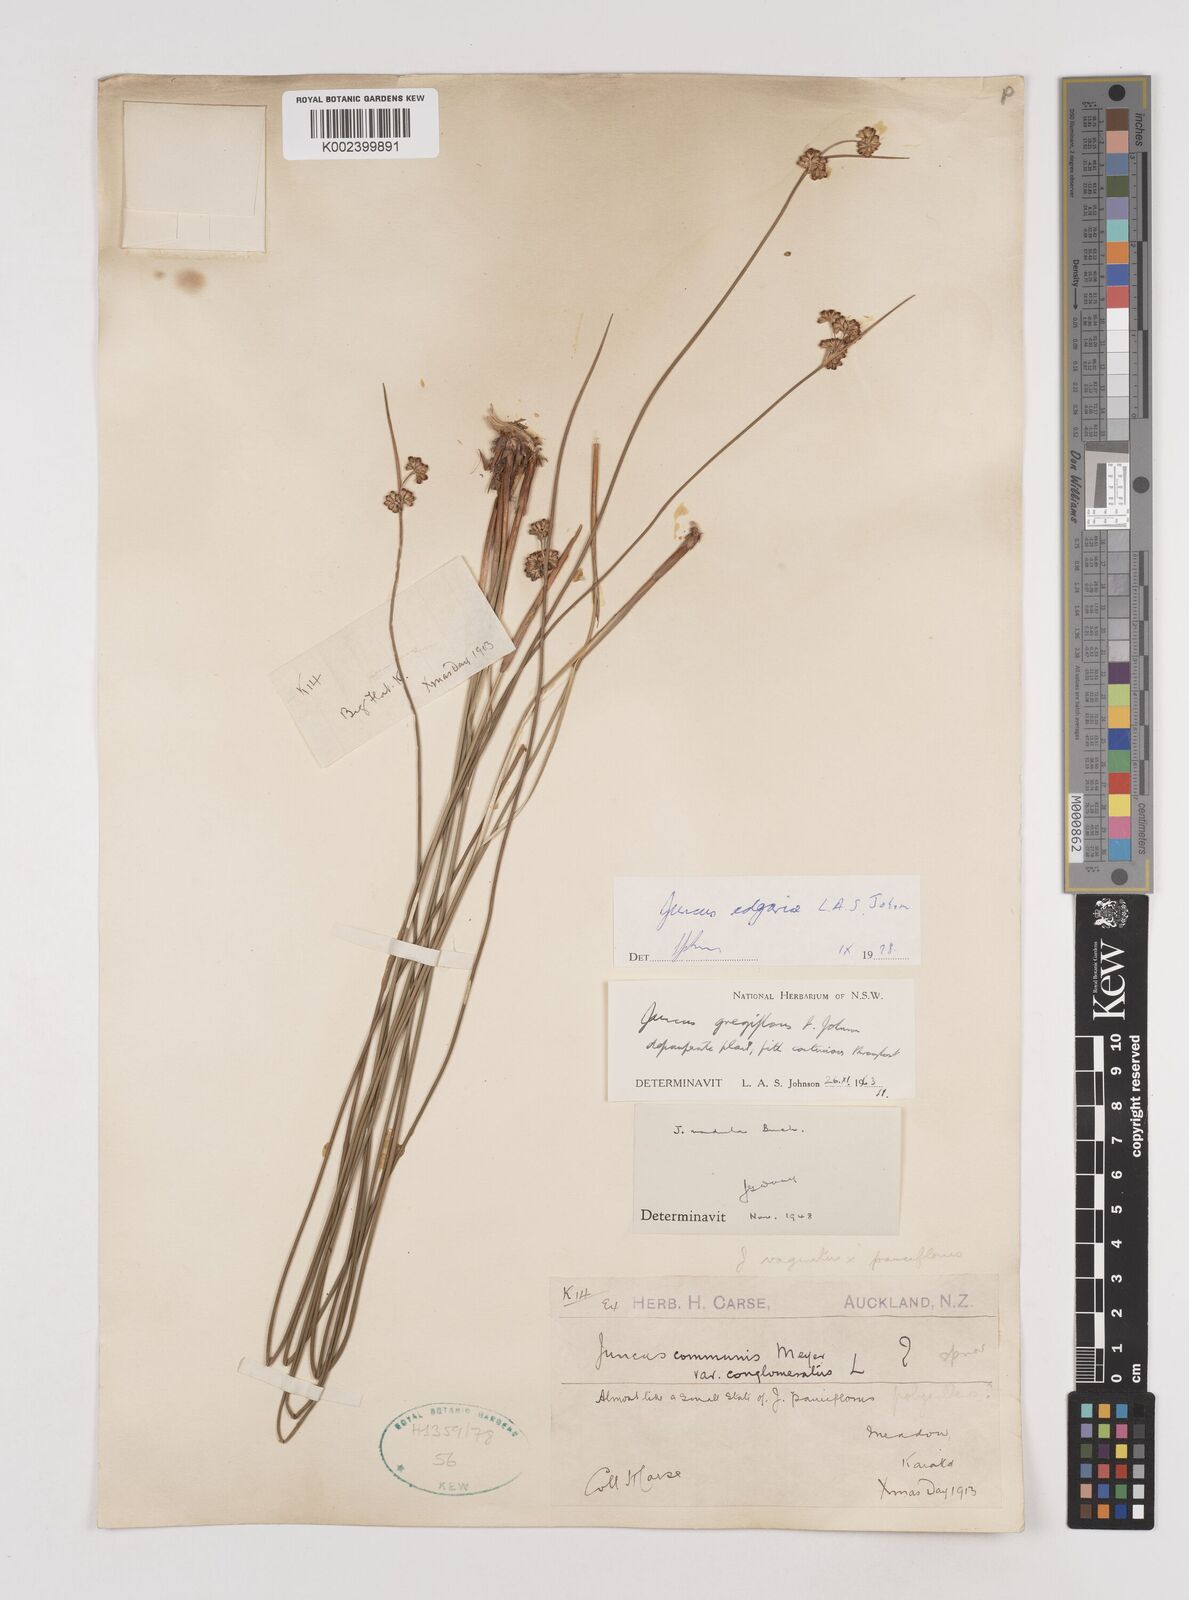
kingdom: Plantae
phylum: Tracheophyta
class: Liliopsida
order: Poales
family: Juncaceae
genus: Juncus
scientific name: Juncus edgariae
